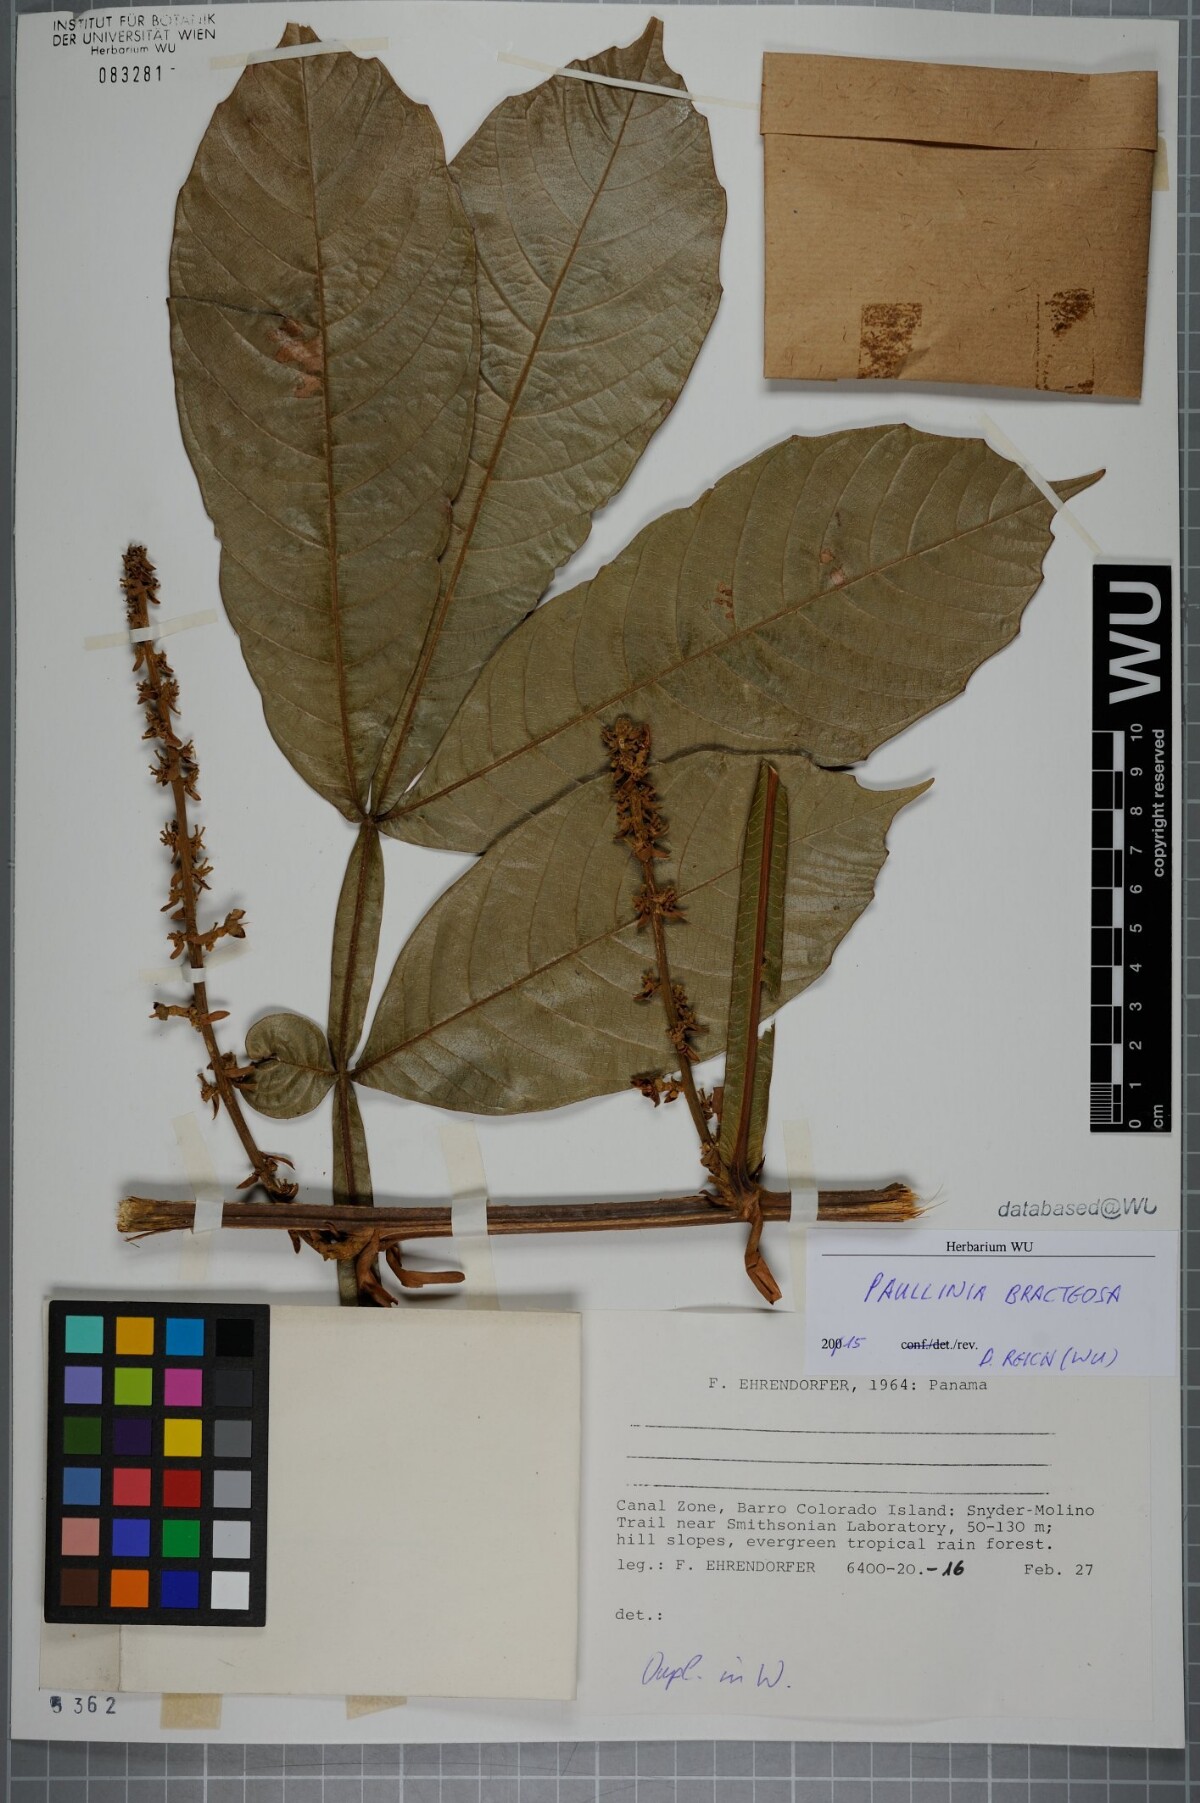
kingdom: Plantae
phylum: Tracheophyta
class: Magnoliopsida
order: Sapindales
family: Sapindaceae
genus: Paullinia
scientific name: Paullinia bracteosa
